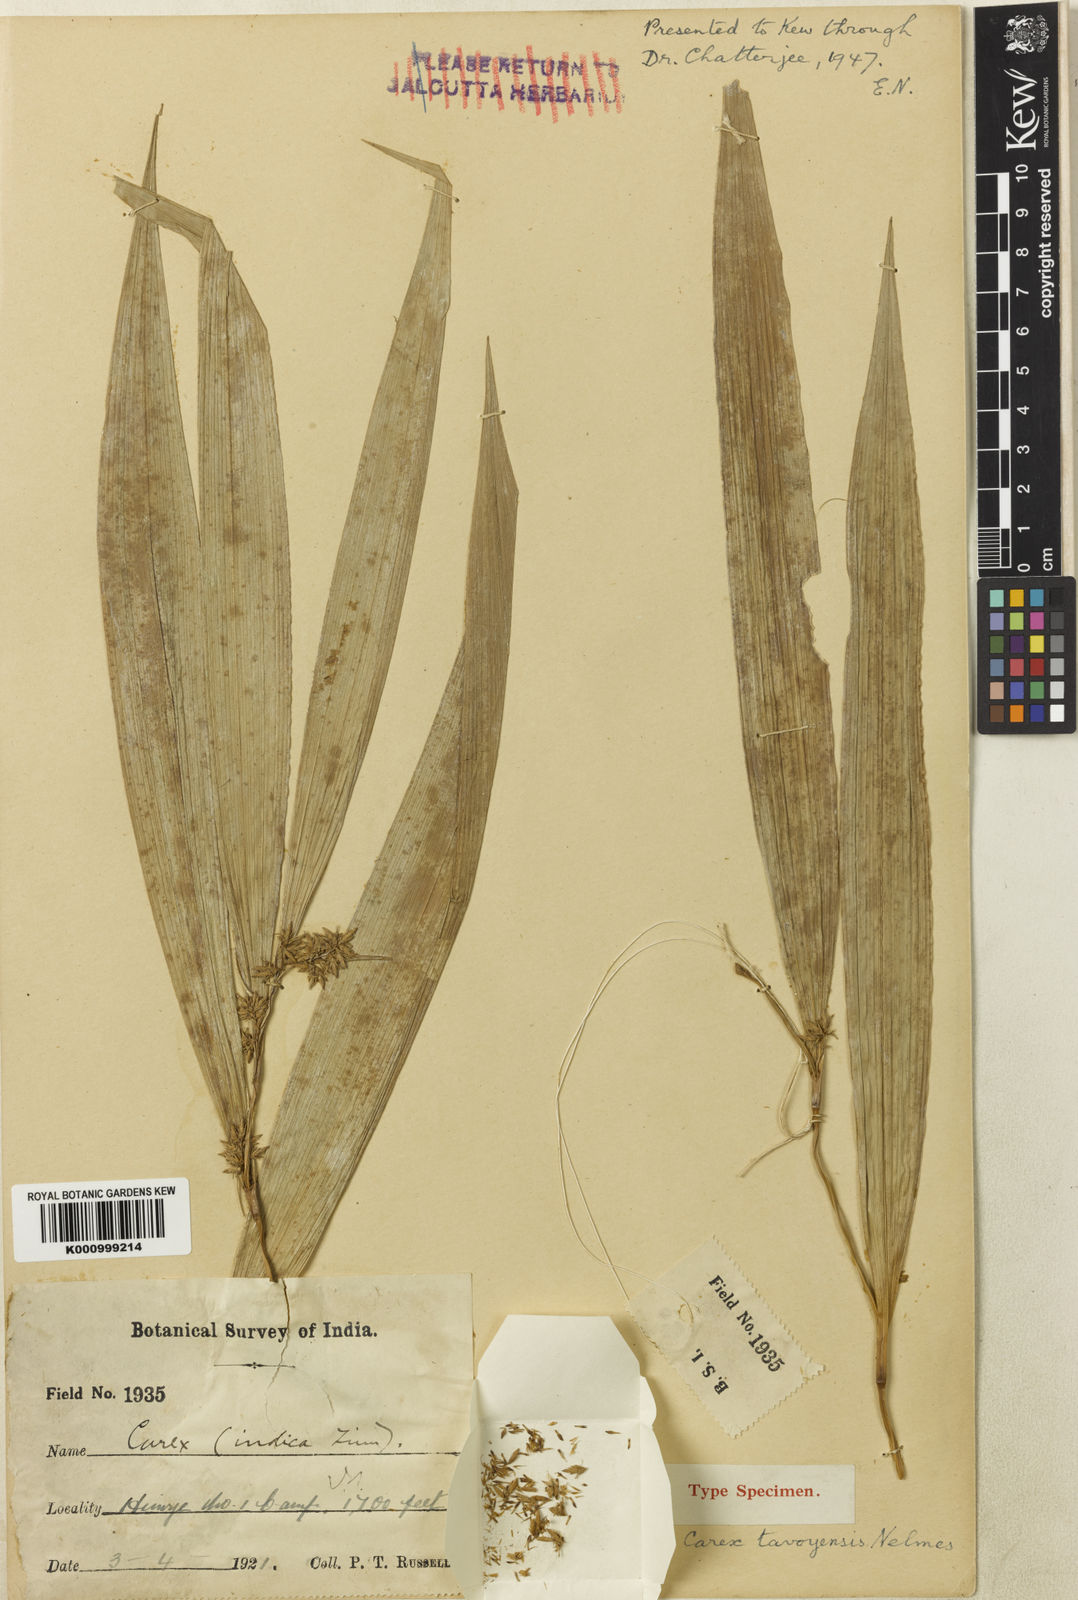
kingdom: Plantae
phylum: Tracheophyta
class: Liliopsida
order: Poales
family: Cyperaceae
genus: Carex
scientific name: Carex tavoyensis
